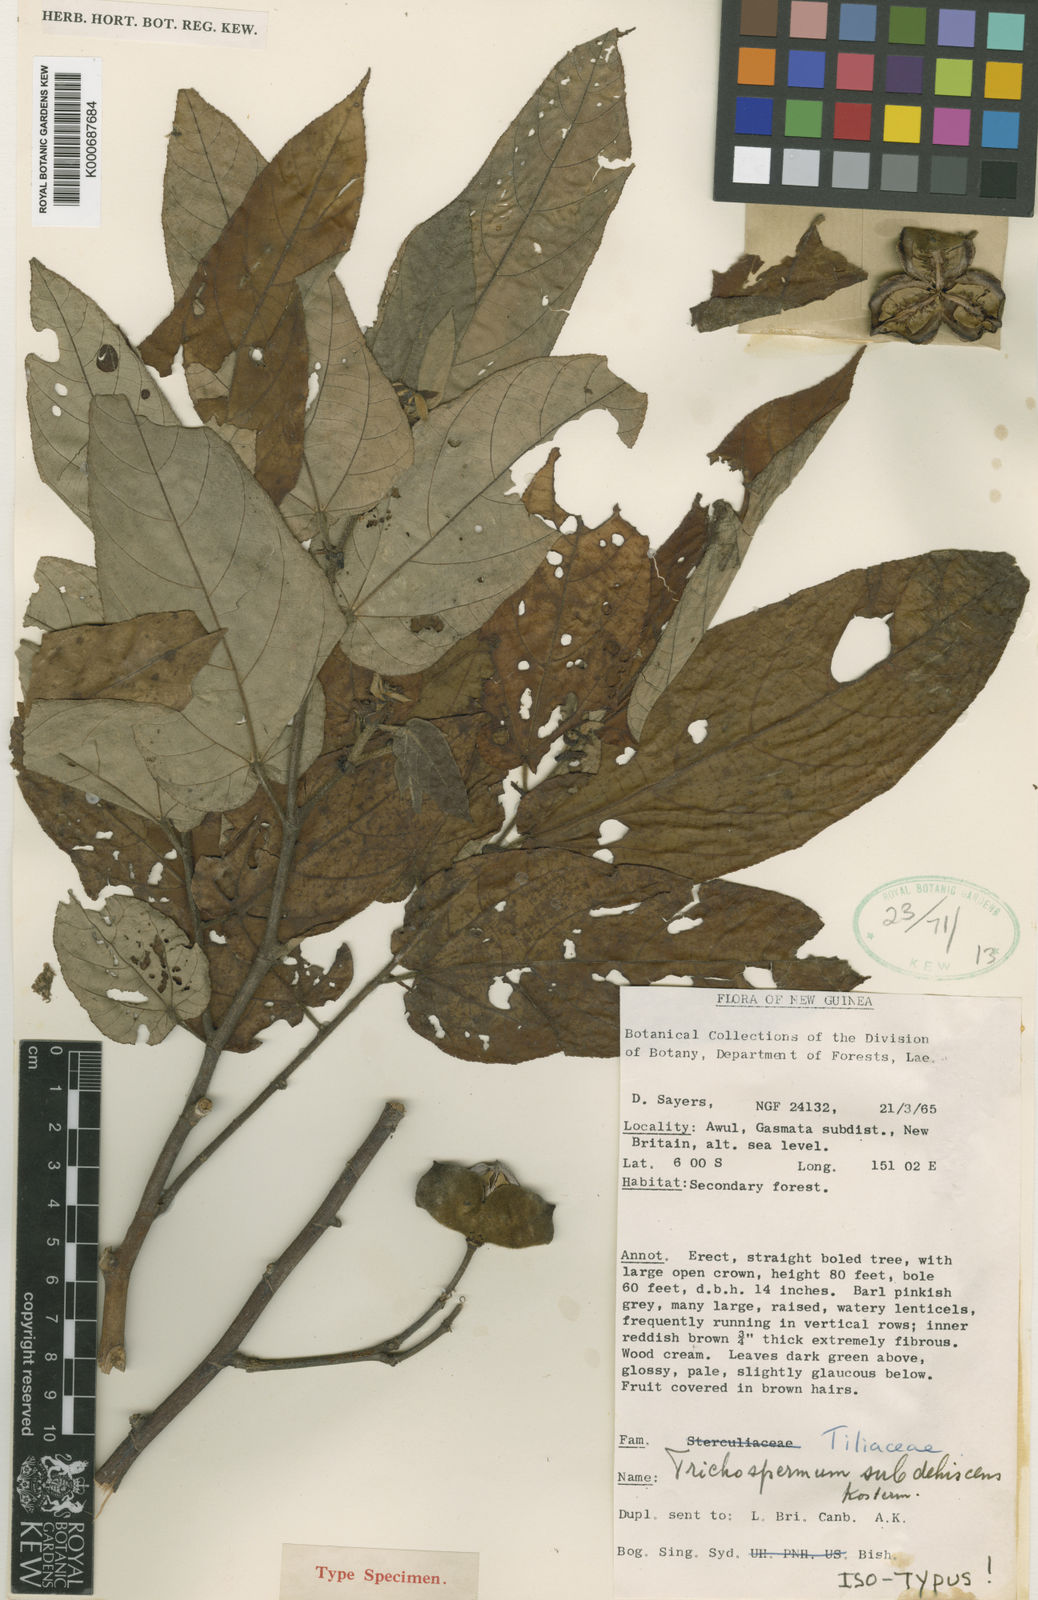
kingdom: Plantae
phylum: Tracheophyta
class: Magnoliopsida
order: Malvales
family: Malvaceae
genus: Trichospermum
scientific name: Trichospermum subdehiscens
